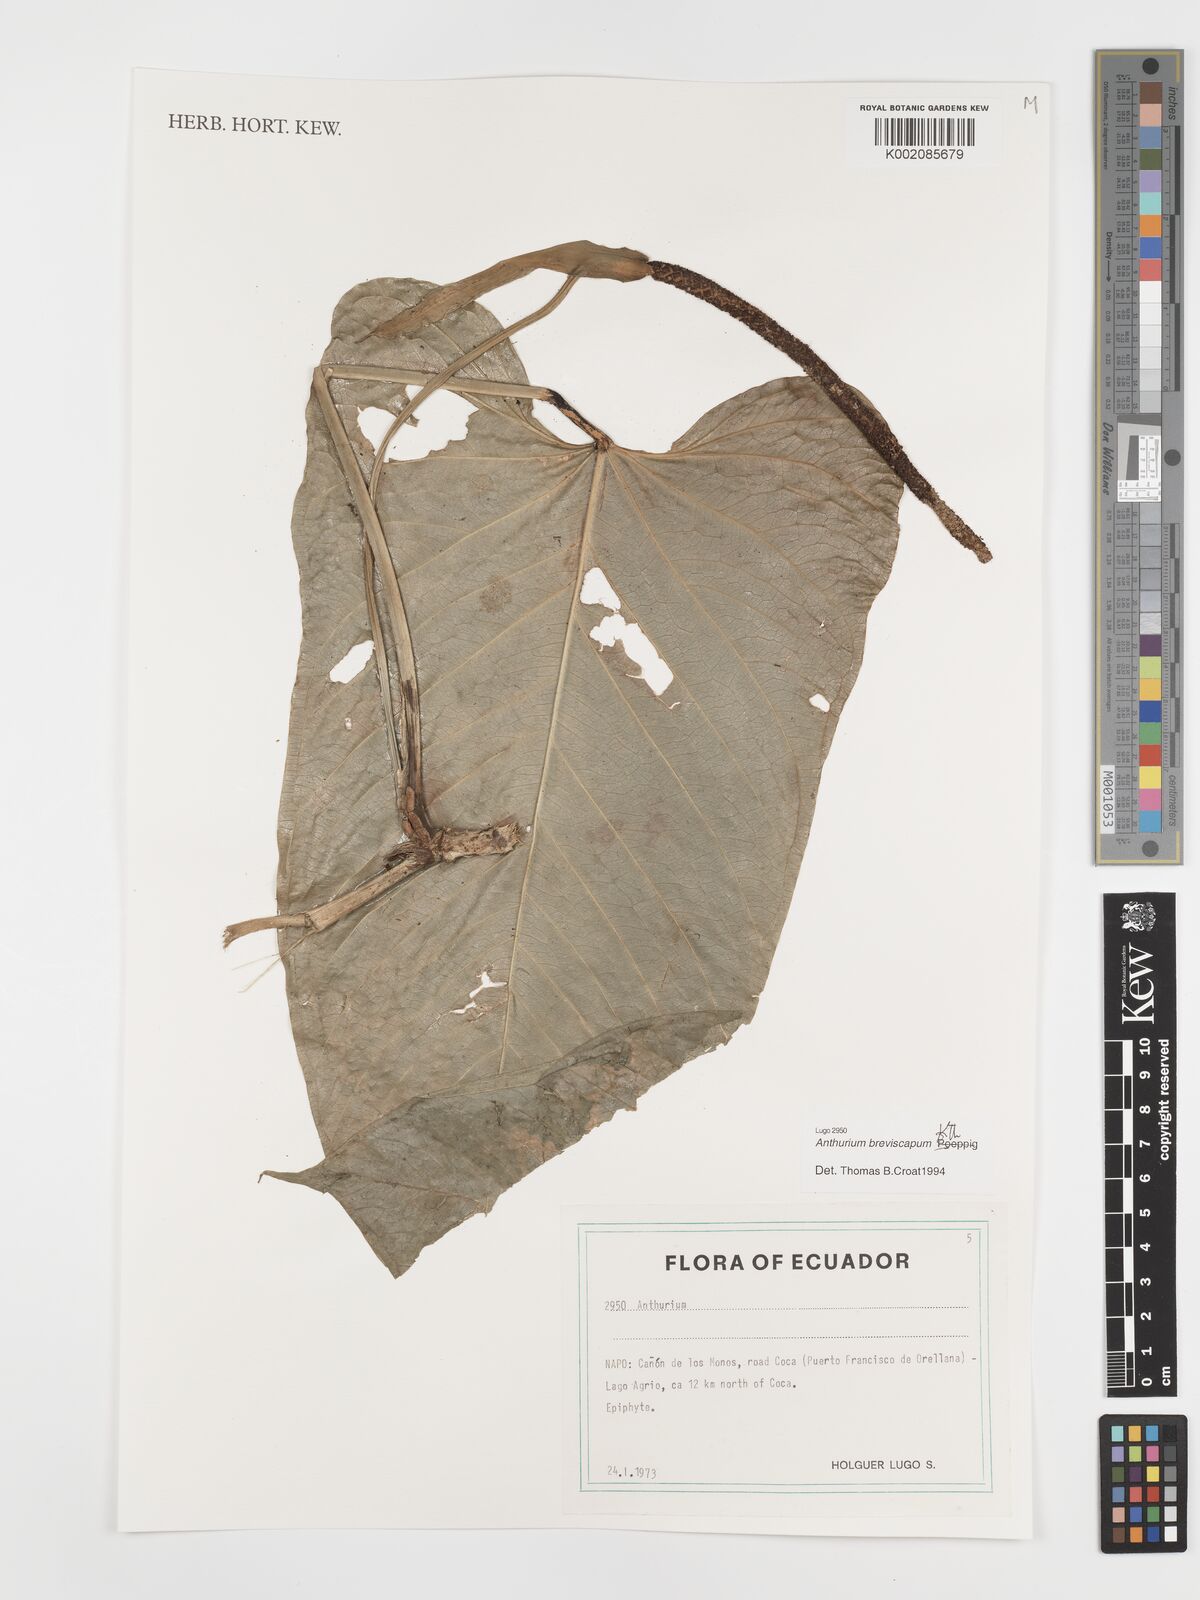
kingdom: Plantae
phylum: Tracheophyta
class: Liliopsida
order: Alismatales
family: Araceae
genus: Anthurium
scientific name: Anthurium breviscapum
